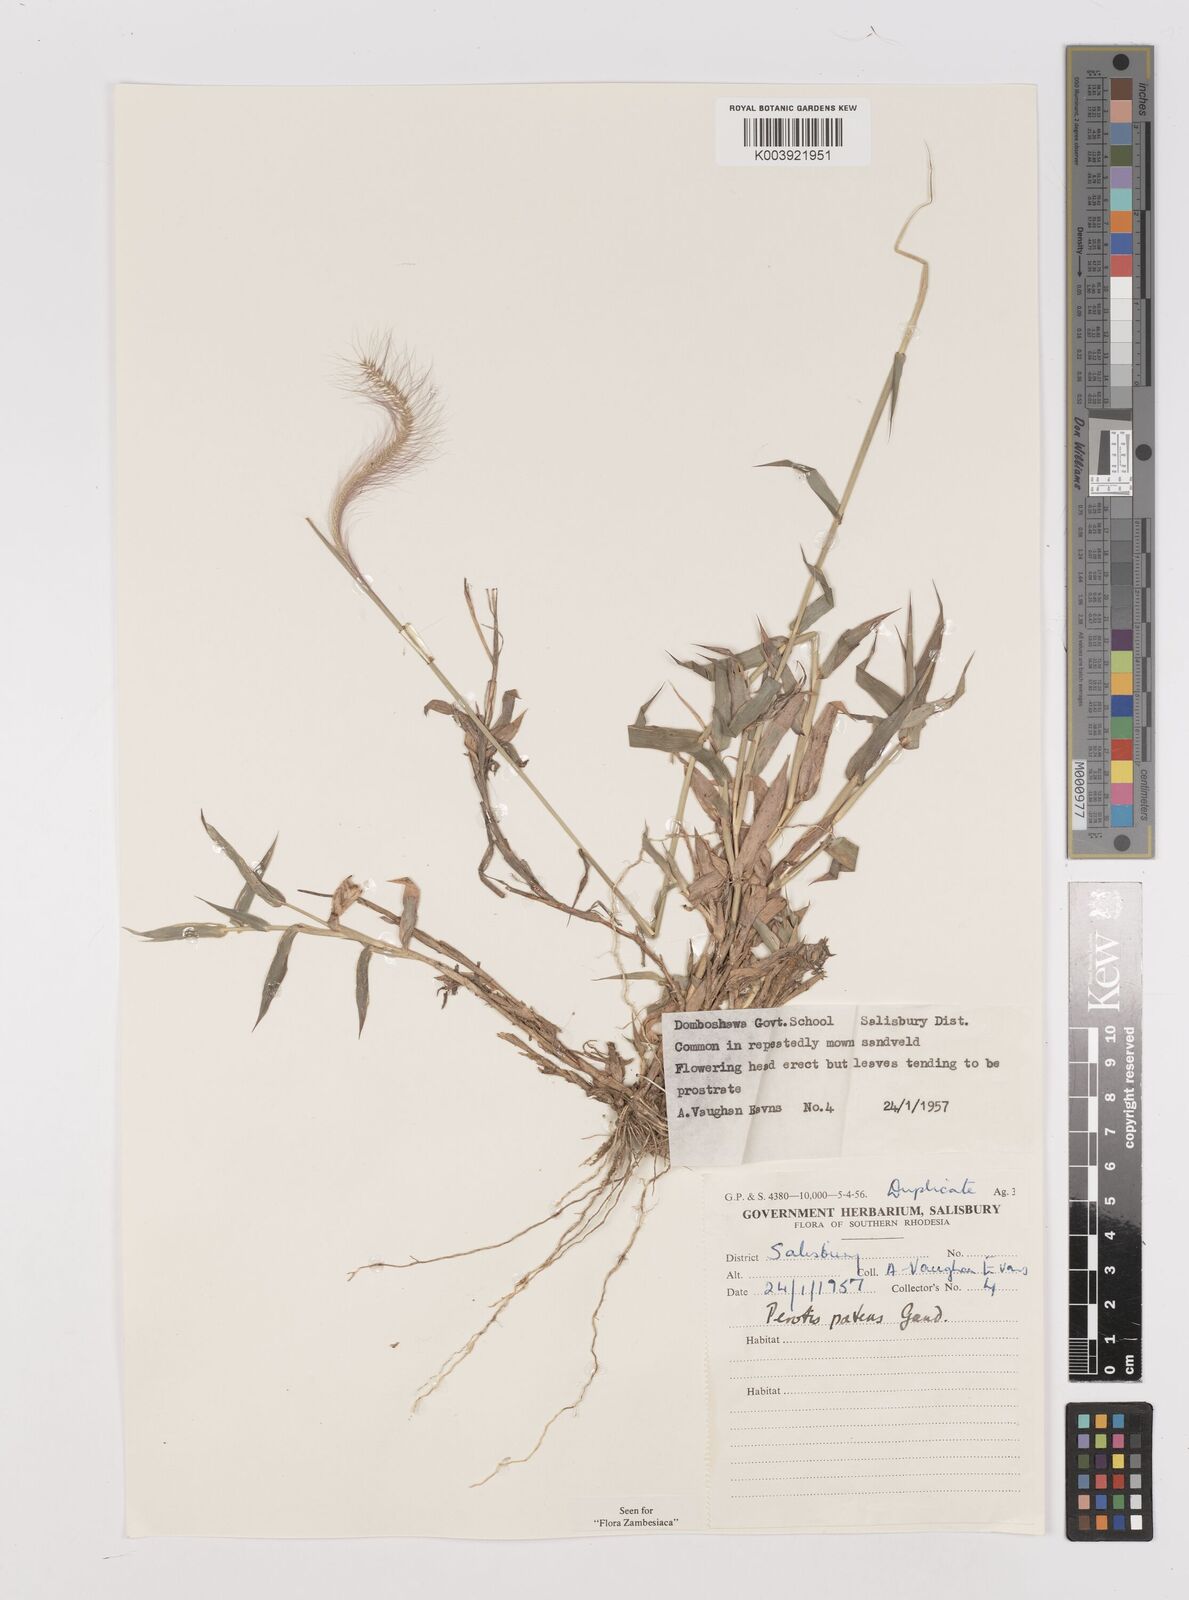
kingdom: Plantae
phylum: Tracheophyta
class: Liliopsida
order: Poales
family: Poaceae
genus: Perotis
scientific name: Perotis patens
